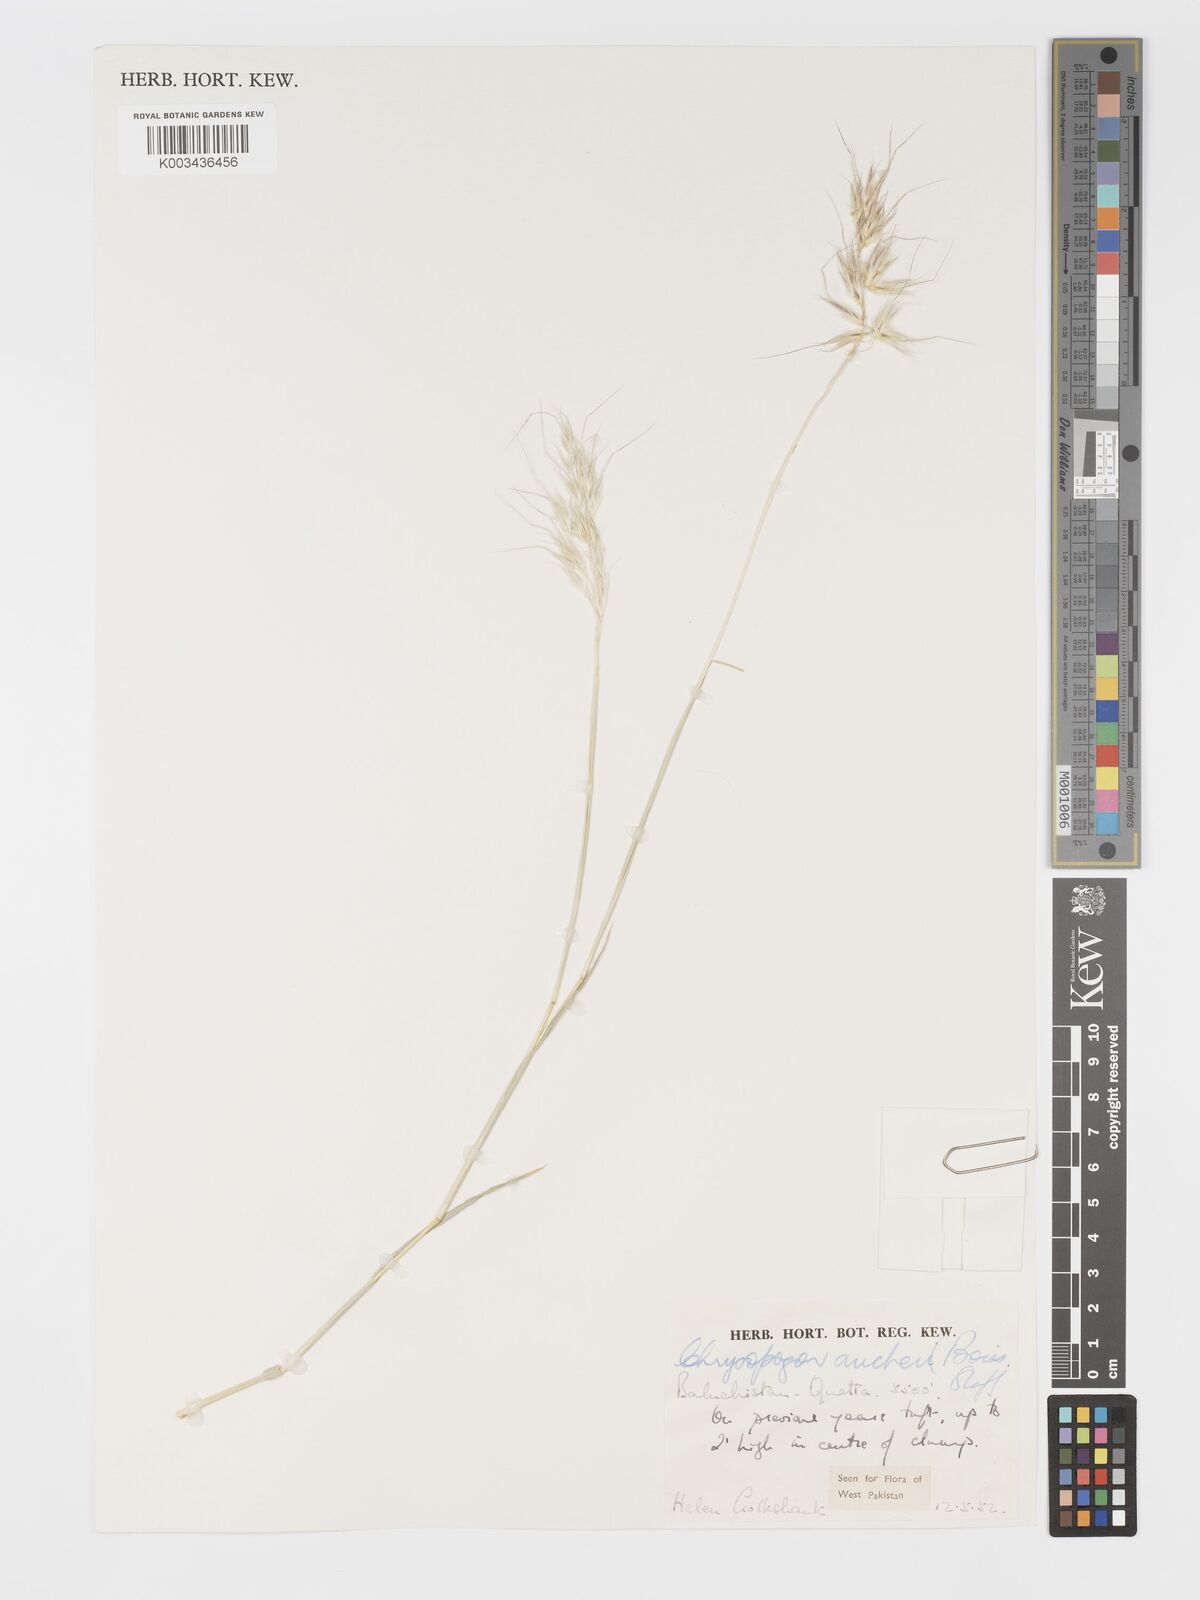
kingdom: Plantae
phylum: Tracheophyta
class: Liliopsida
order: Poales
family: Poaceae
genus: Chrysopogon
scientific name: Chrysopogon aucheri
